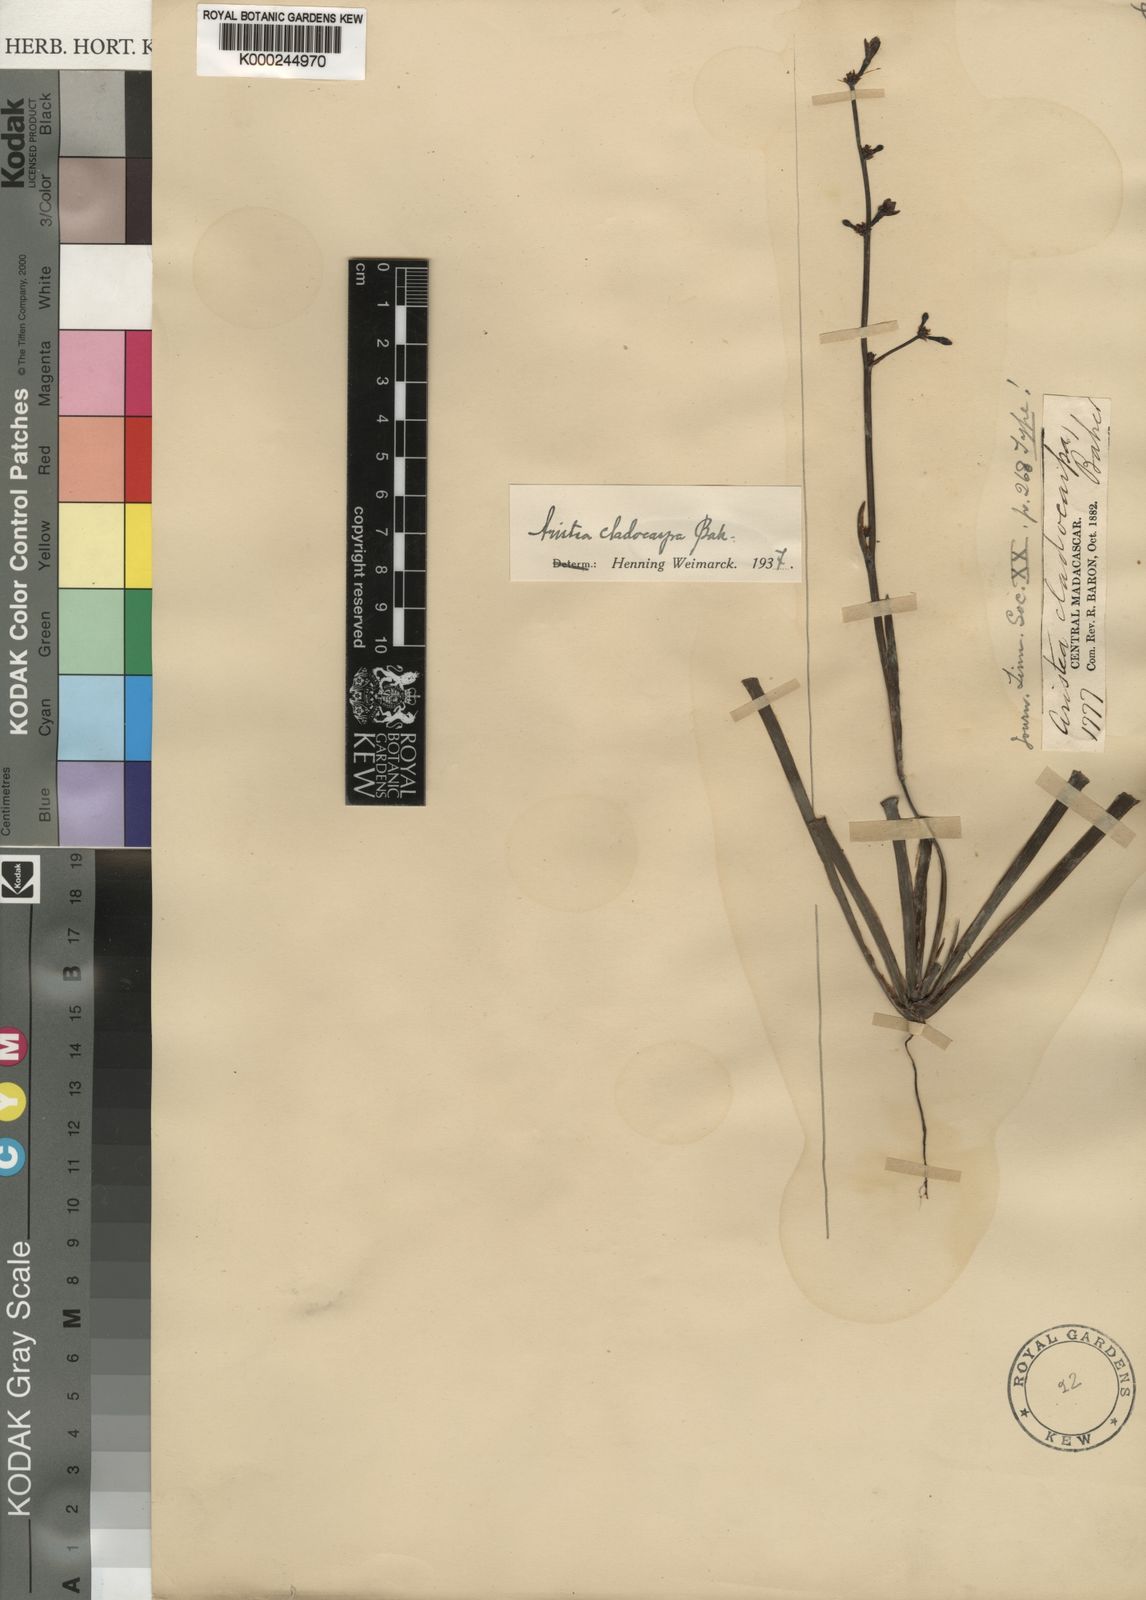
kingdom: Plantae
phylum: Tracheophyta
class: Liliopsida
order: Asparagales
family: Iridaceae
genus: Aristea
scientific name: Aristea cladocarpa
